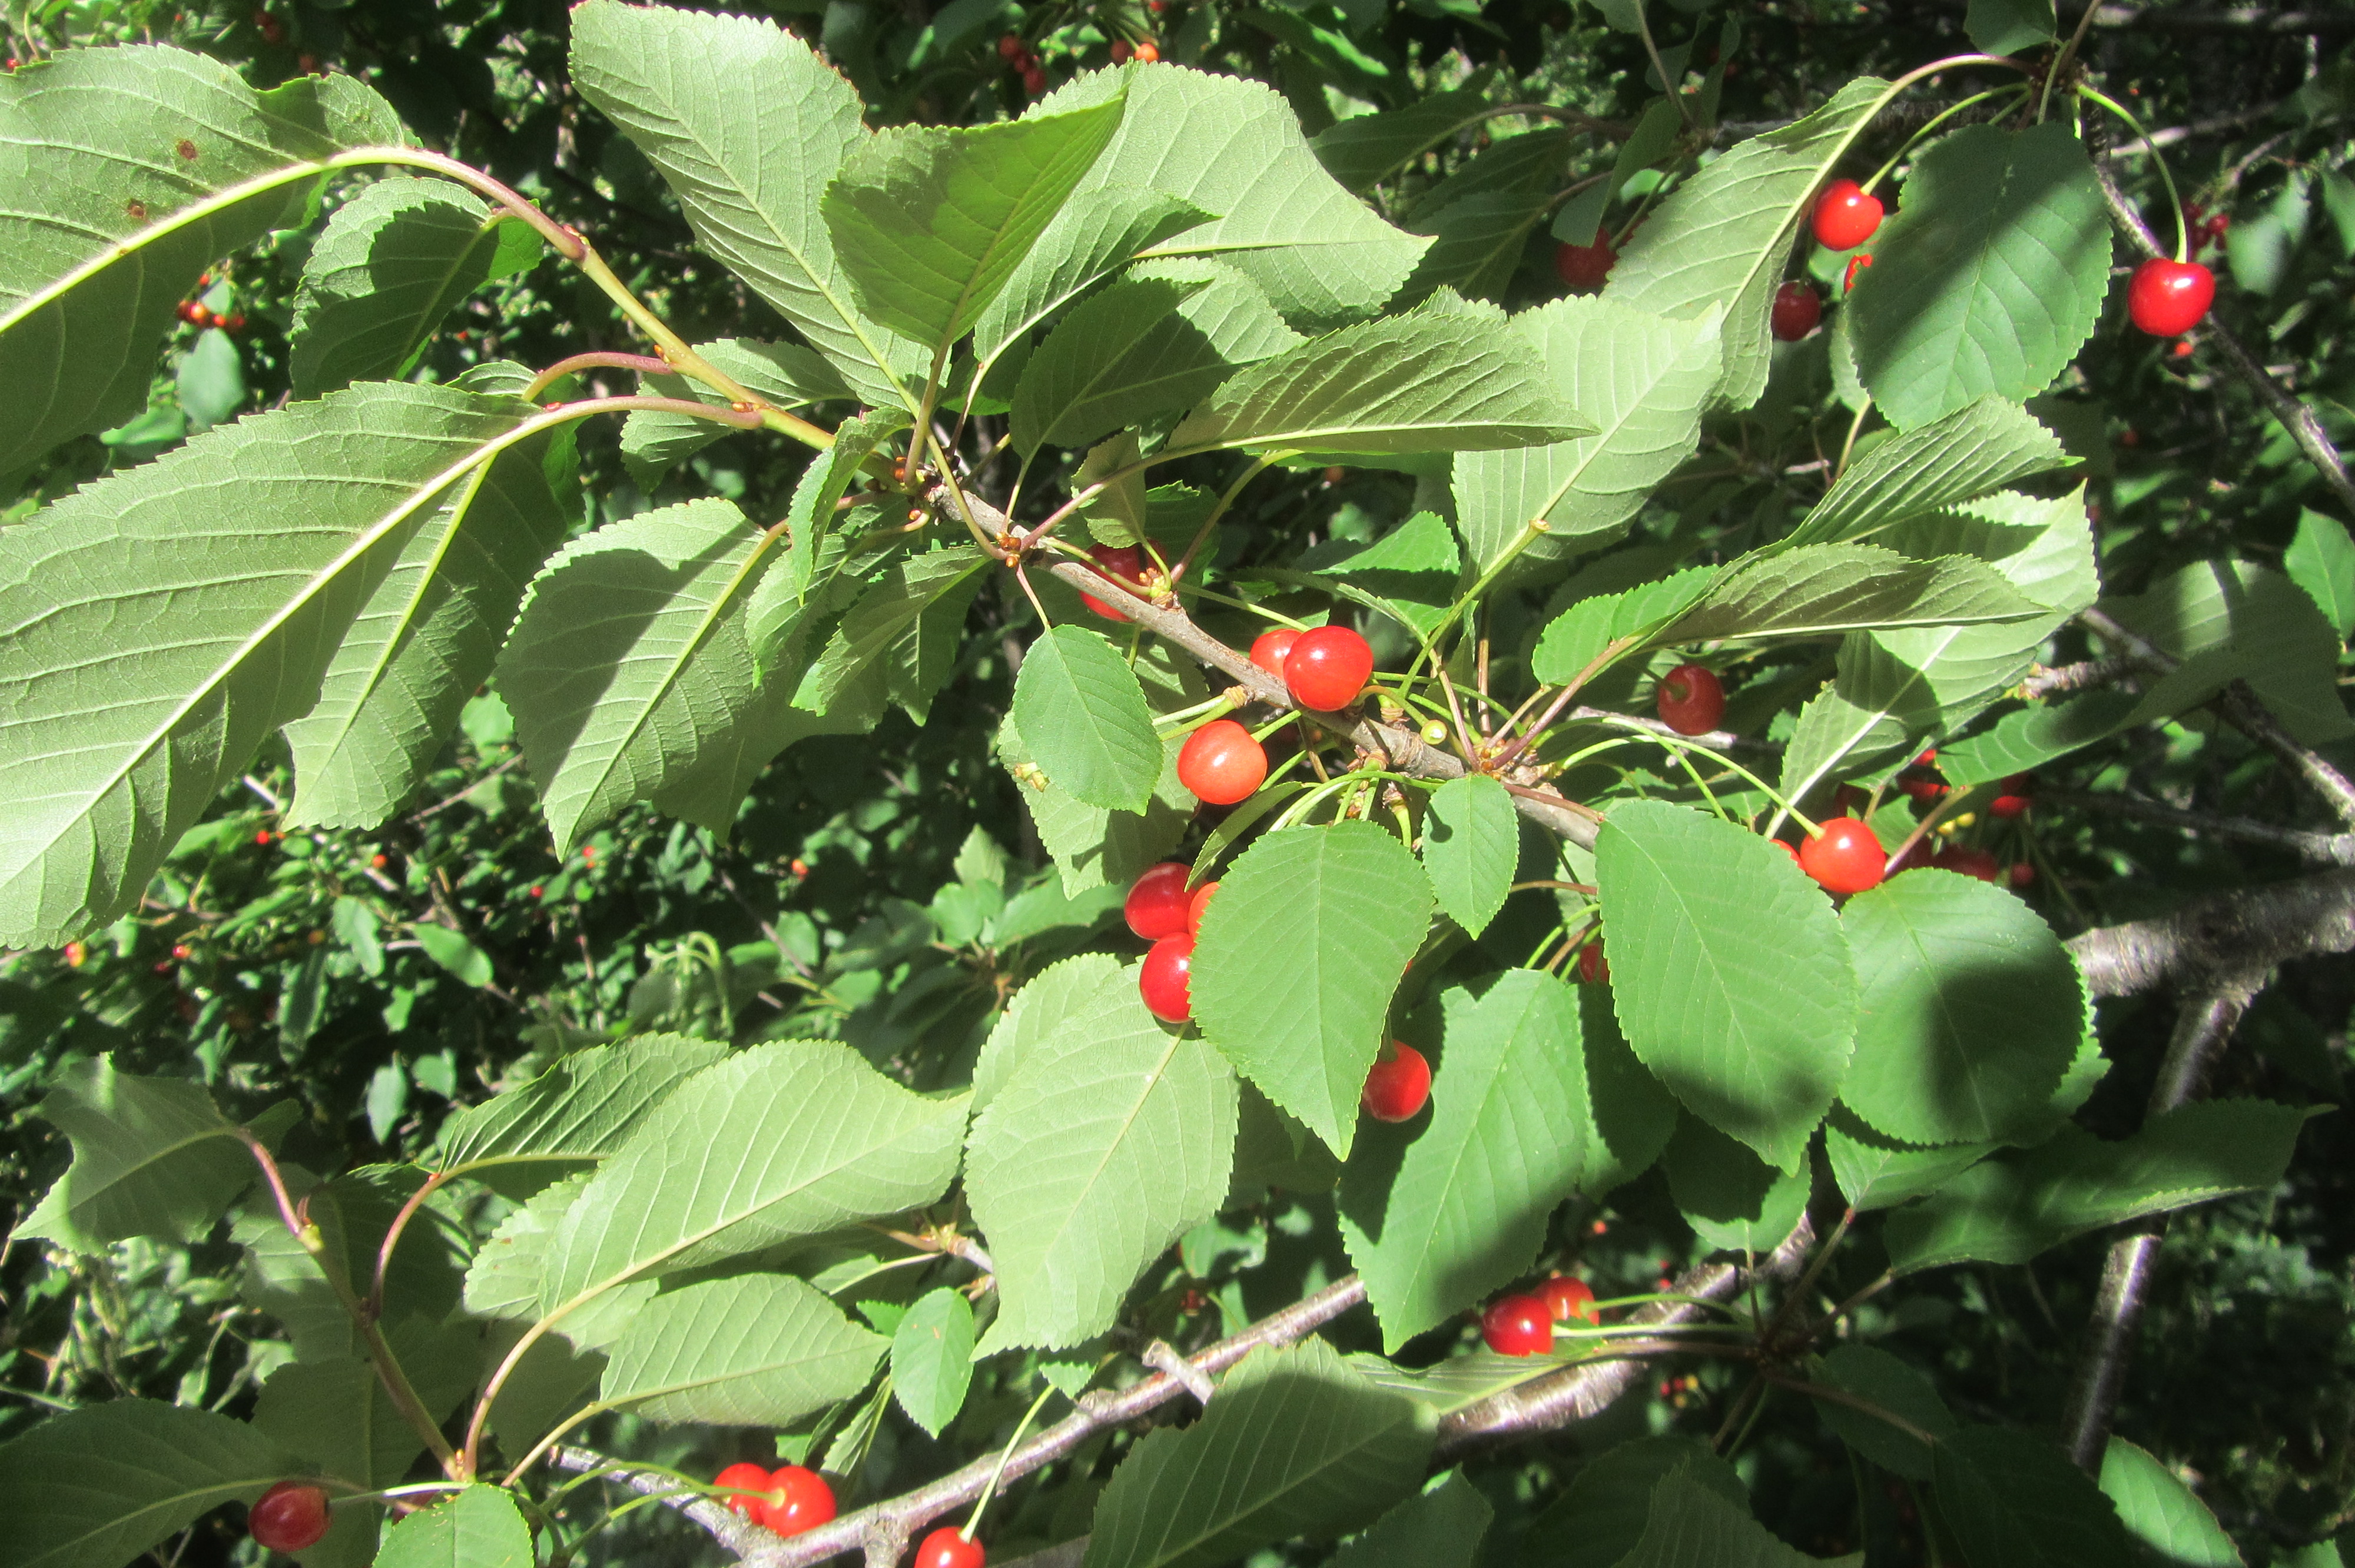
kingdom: Plantae
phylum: Tracheophyta
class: Magnoliopsida
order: Rosales
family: Rosaceae
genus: Prunus
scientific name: Prunus avium
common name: Sweet cherry
